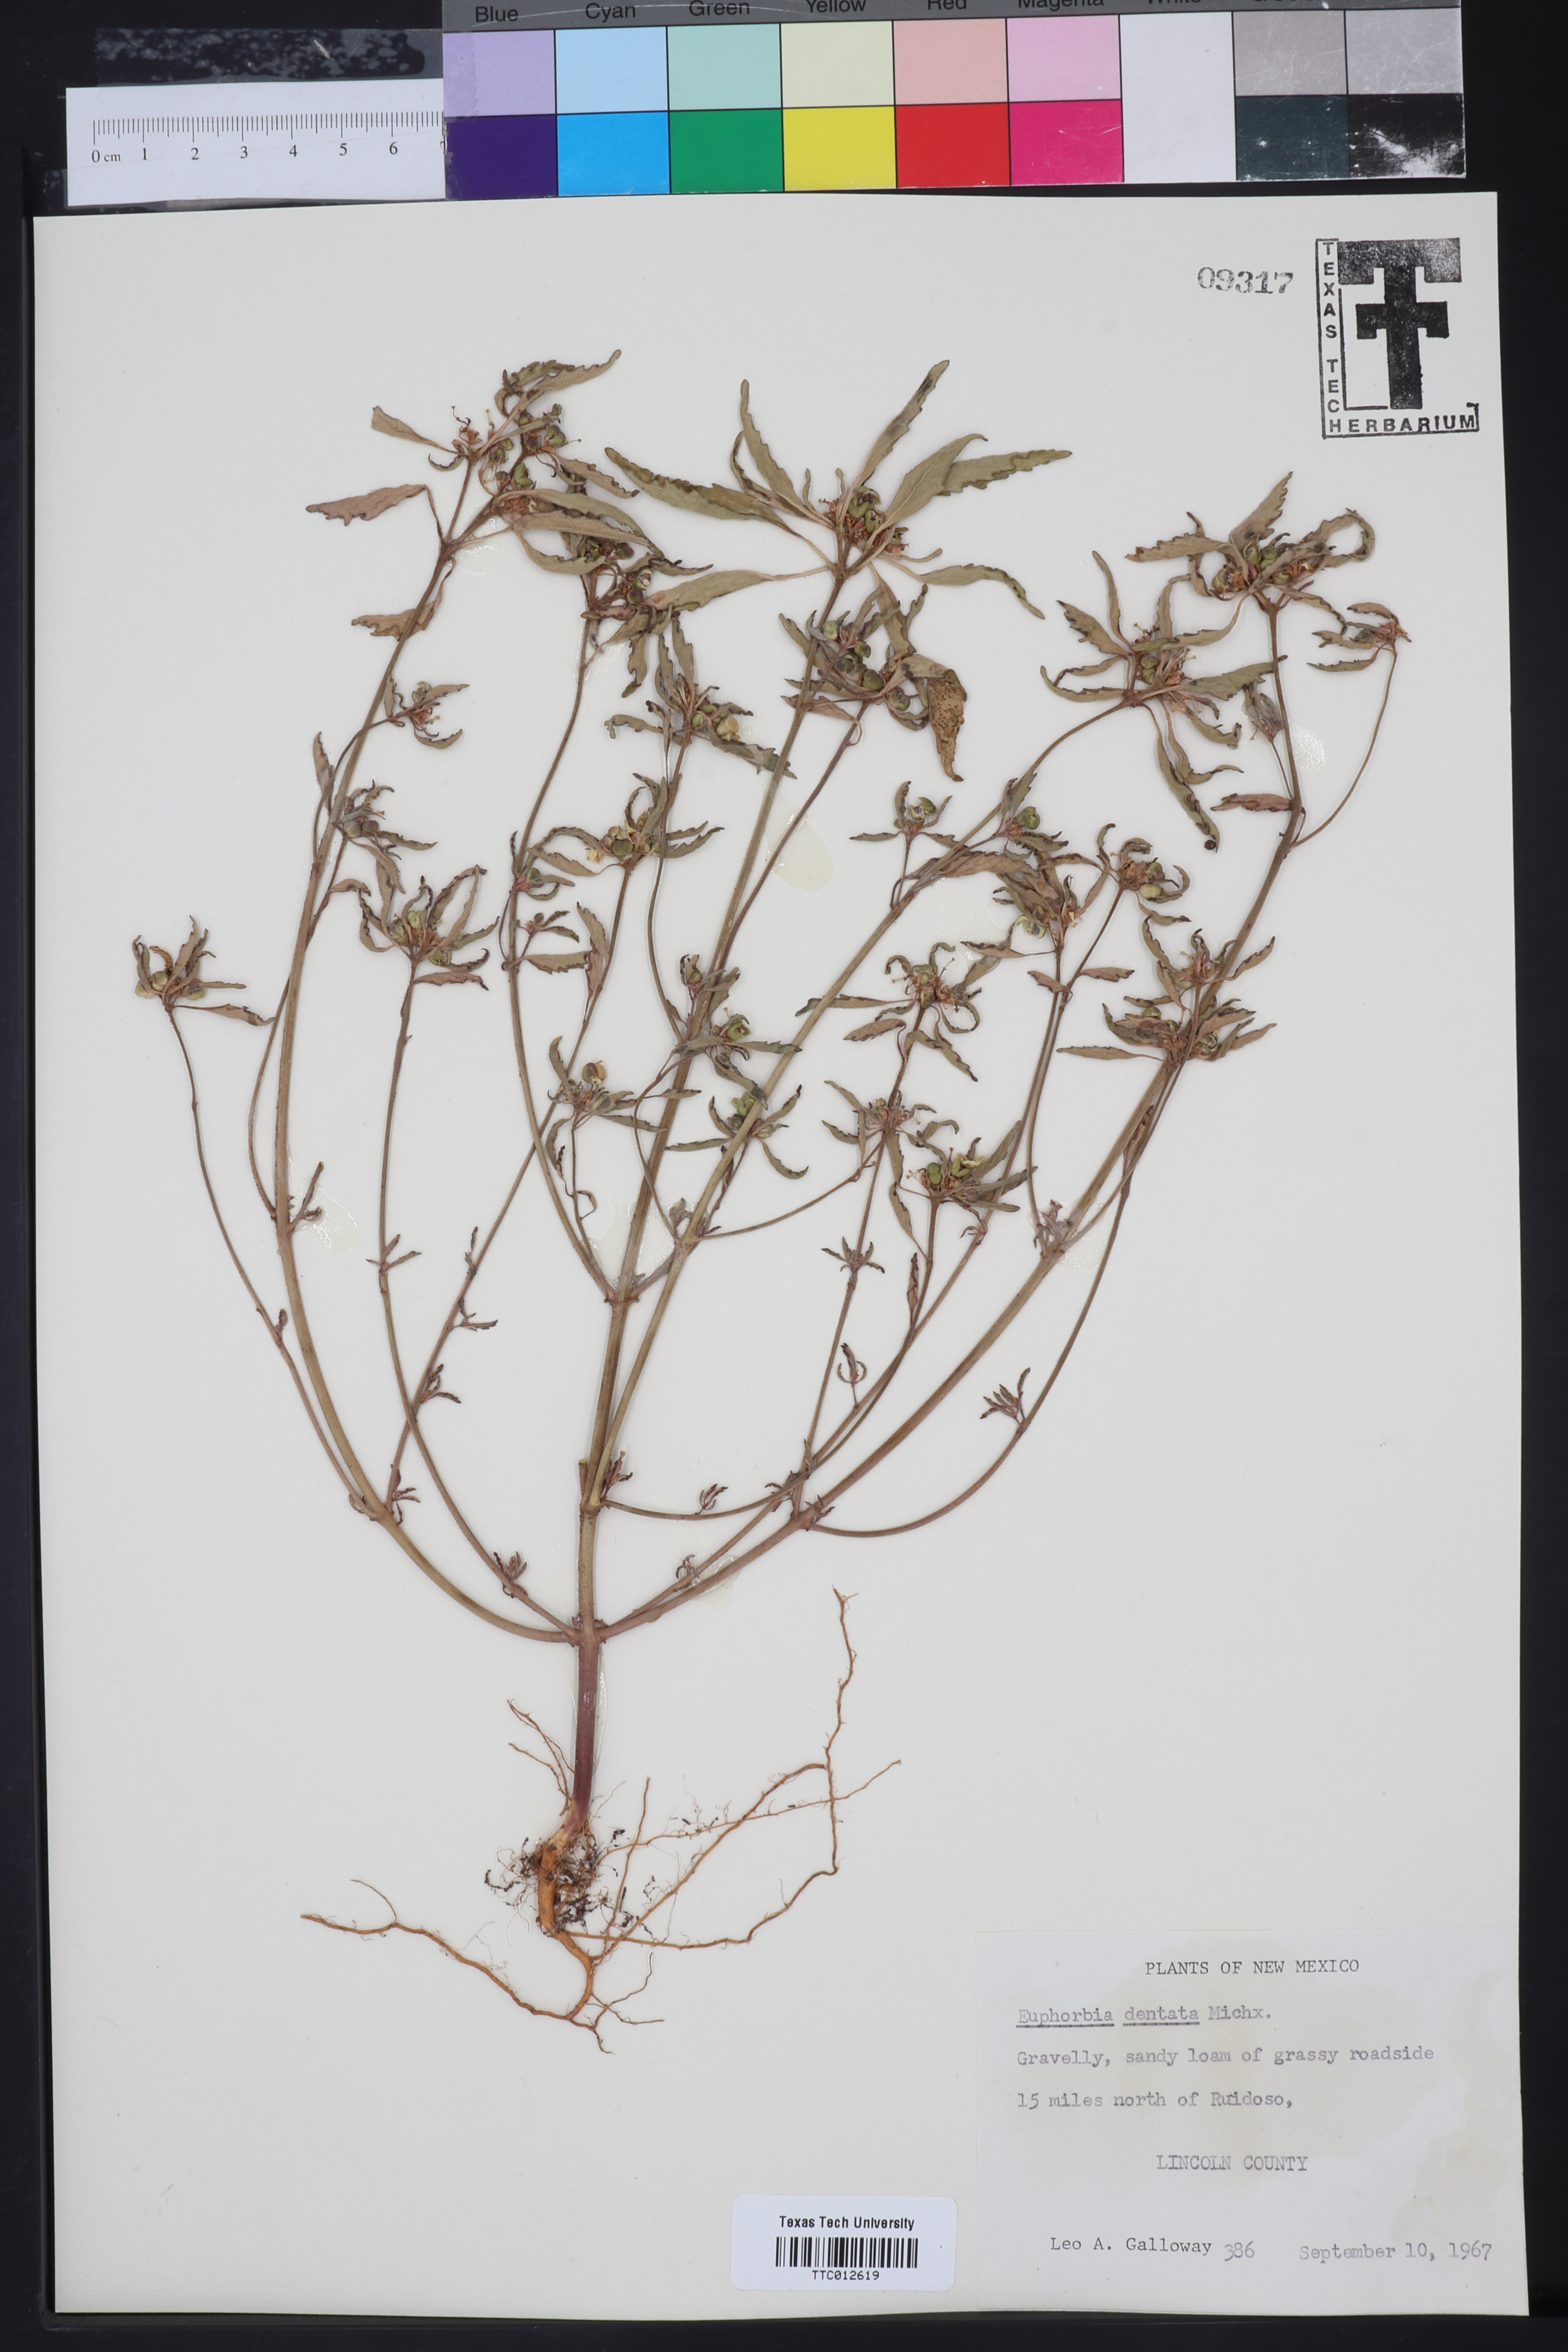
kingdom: Plantae
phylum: Tracheophyta
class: Magnoliopsida
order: Malpighiales
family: Euphorbiaceae
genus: Euphorbia
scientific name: Euphorbia dentata
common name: Dentate spurge
